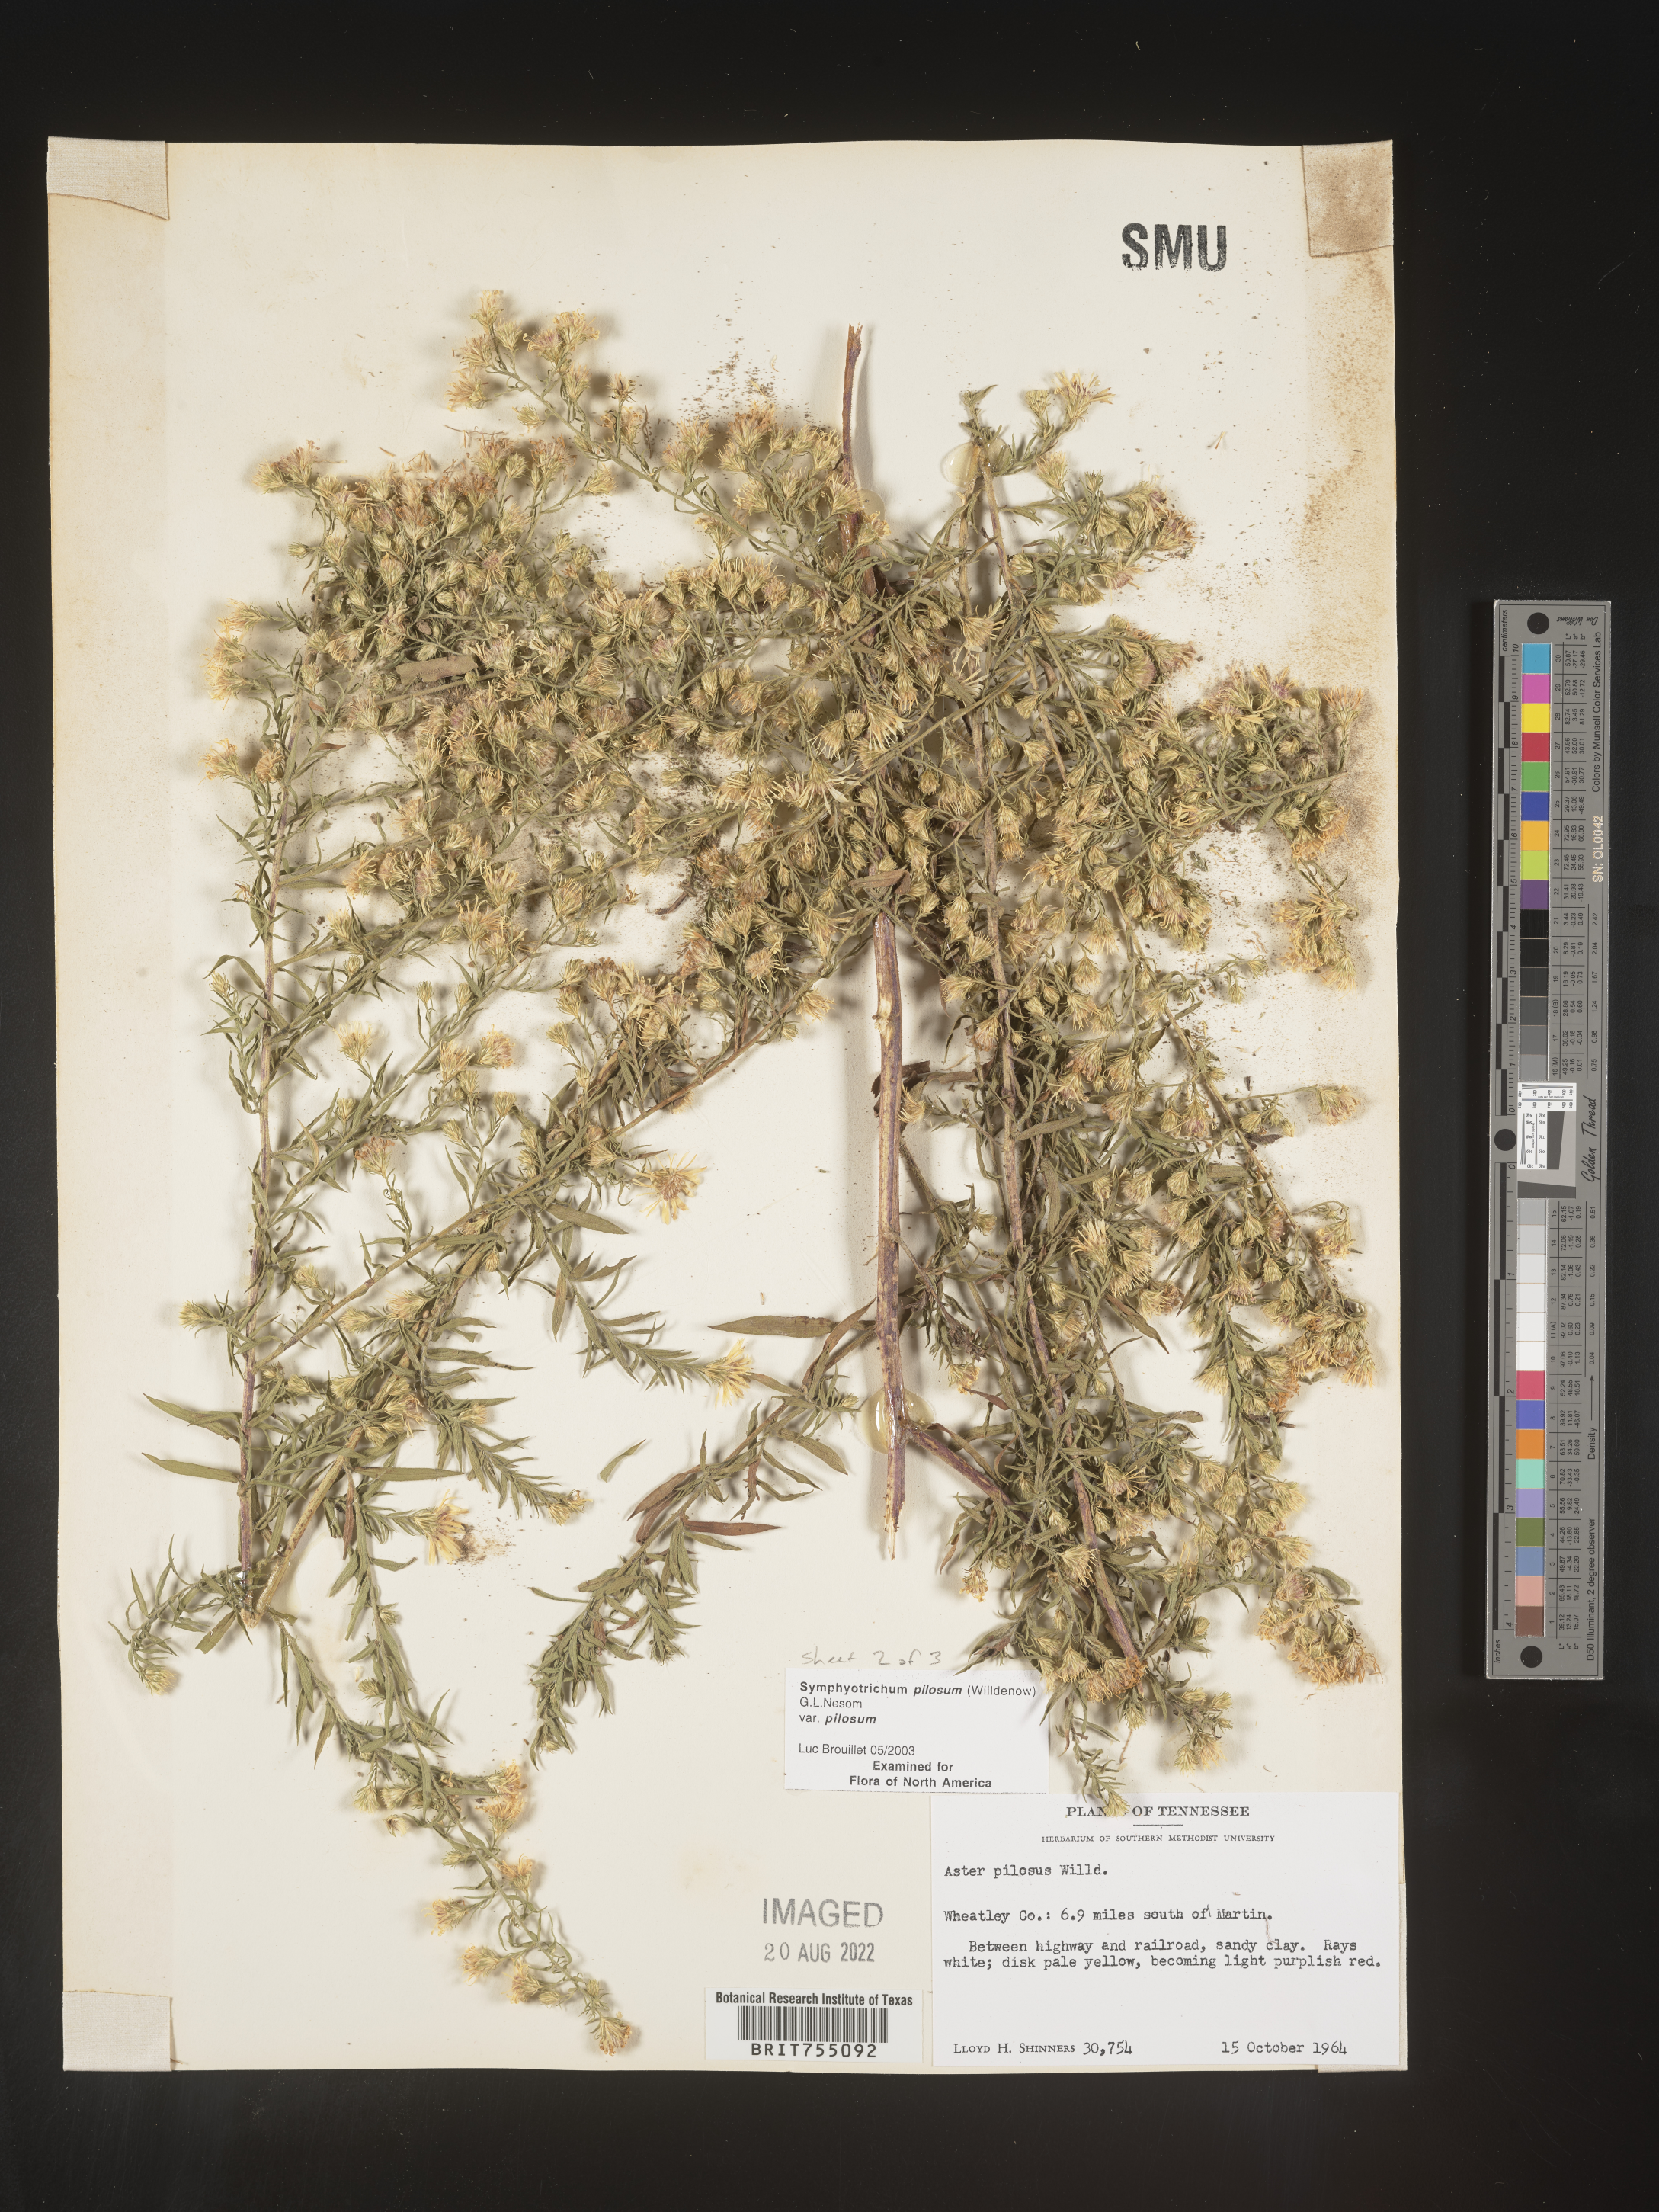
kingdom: Plantae
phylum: Tracheophyta
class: Magnoliopsida
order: Asterales
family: Asteraceae
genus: Symphyotrichum
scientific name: Symphyotrichum pilosum
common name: Awl aster
